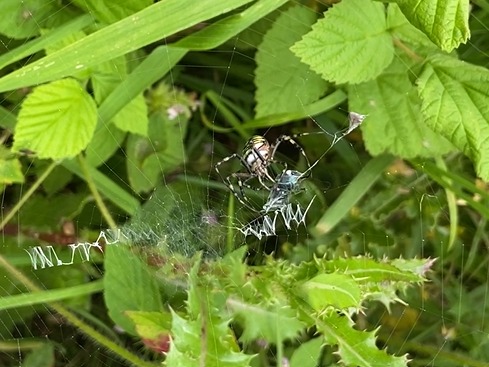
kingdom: Animalia
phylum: Arthropoda
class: Arachnida
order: Araneae
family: Araneidae
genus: Argiope
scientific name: Argiope bruennichi
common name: Hvepseedderkop
